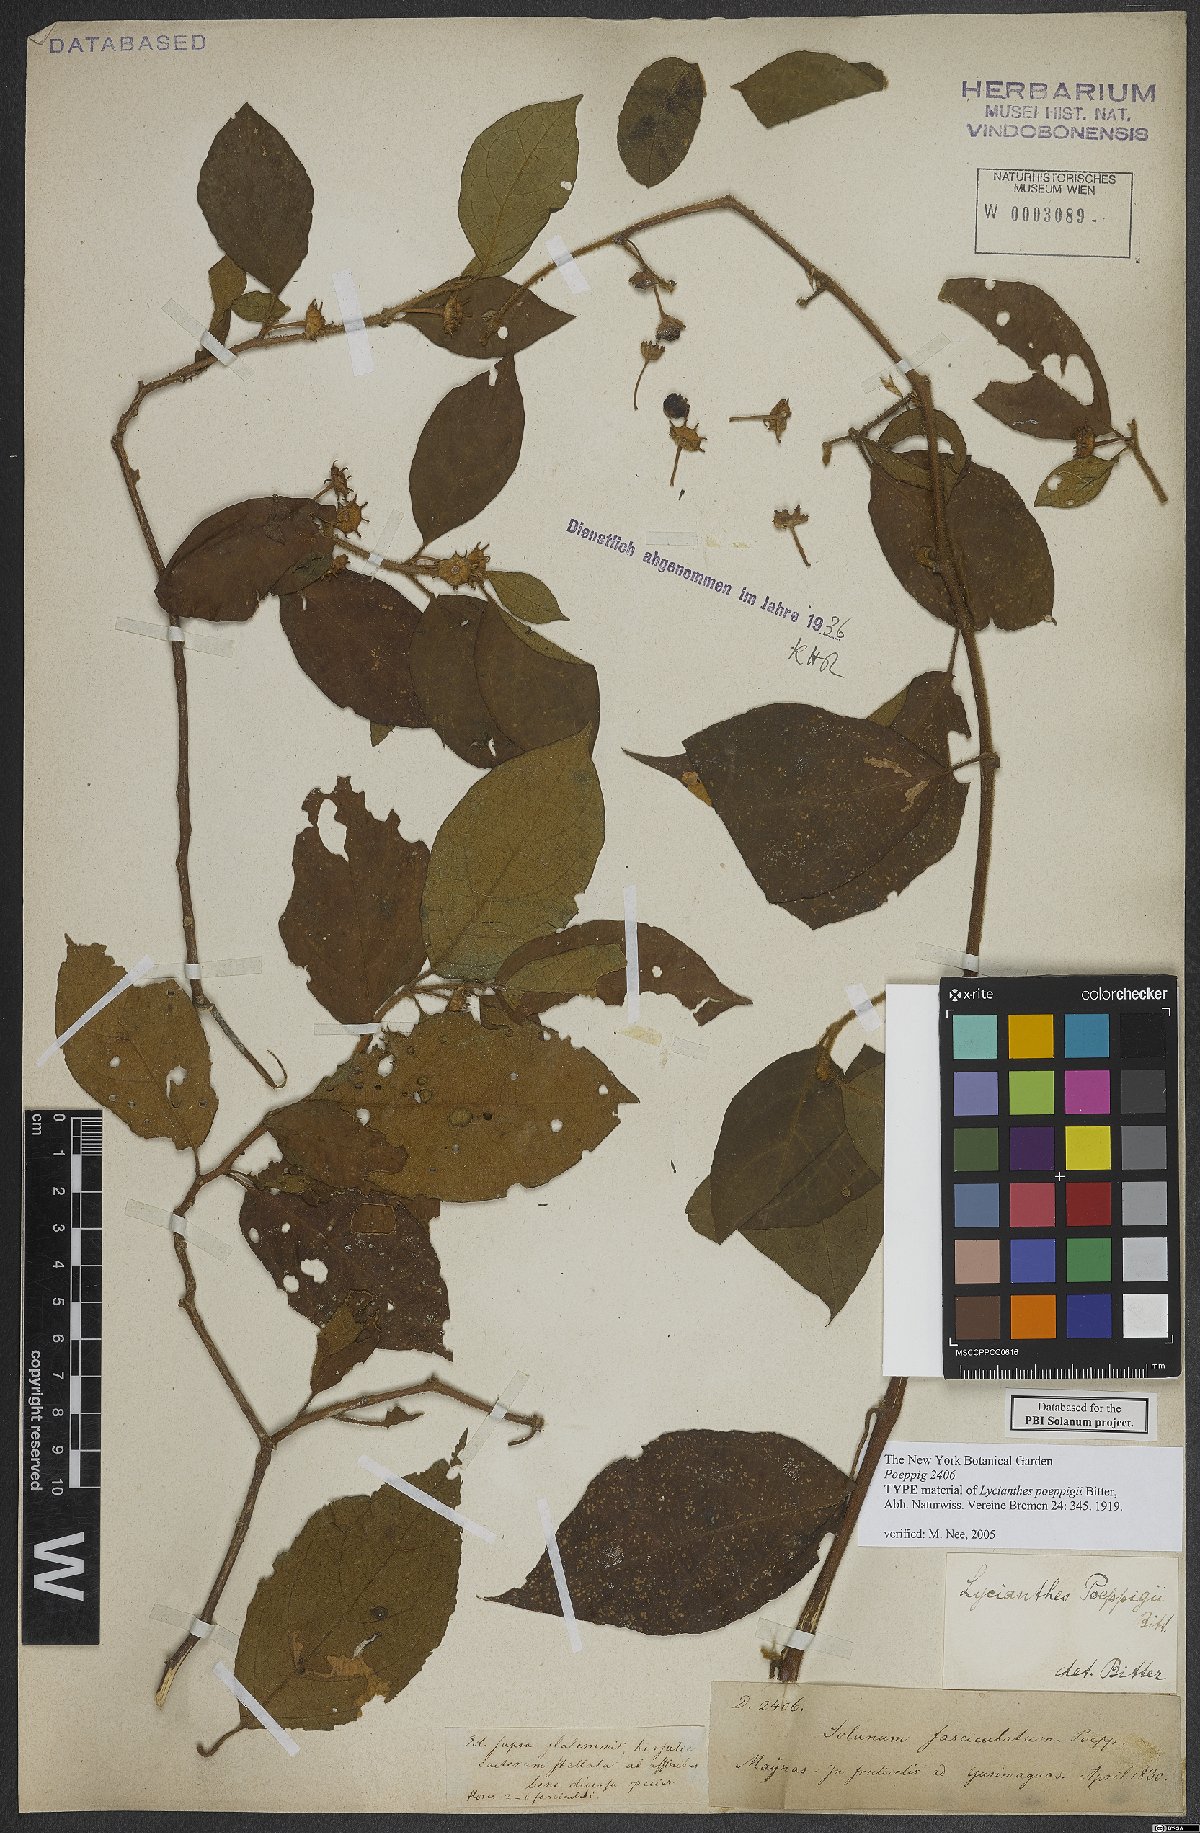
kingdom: Plantae
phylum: Tracheophyta
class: Magnoliopsida
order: Solanales
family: Solanaceae
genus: Lycianthes
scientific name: Lycianthes poeppigii
